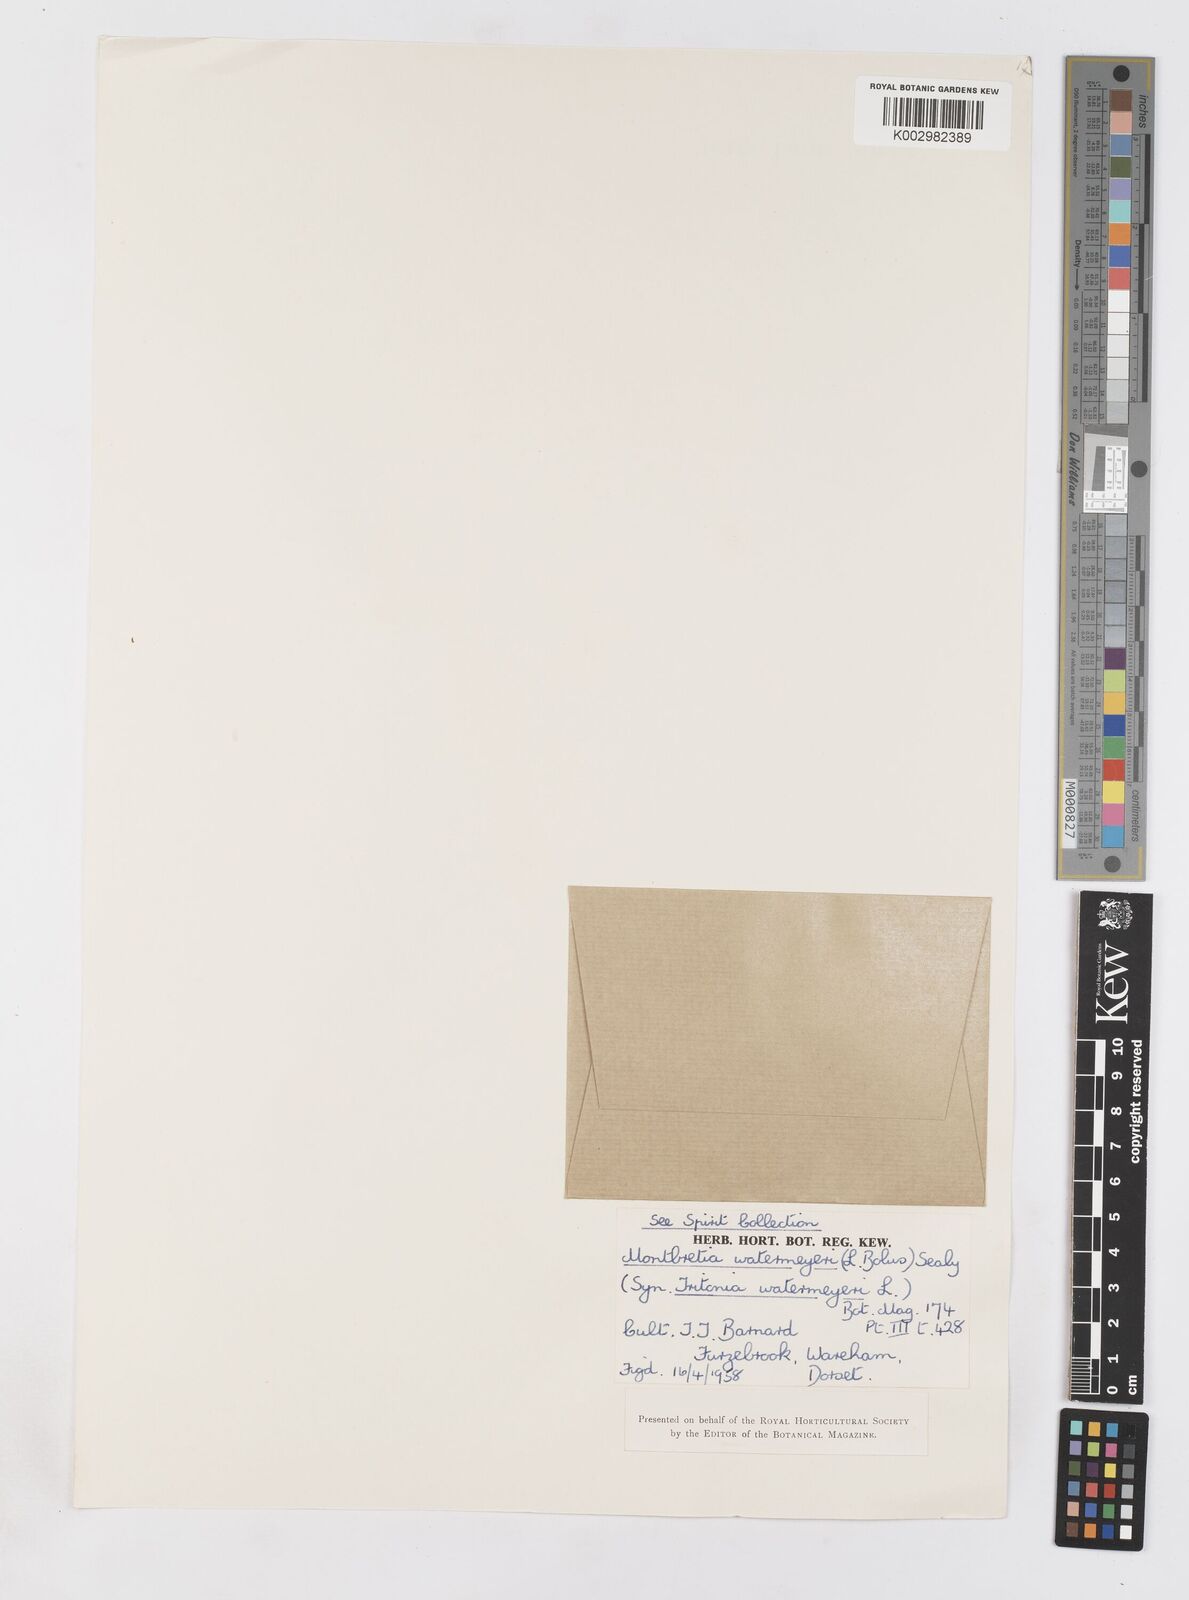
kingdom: Plantae
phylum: Tracheophyta
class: Liliopsida
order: Asparagales
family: Iridaceae
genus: Tritonia
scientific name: Tritonia watermeyeri
